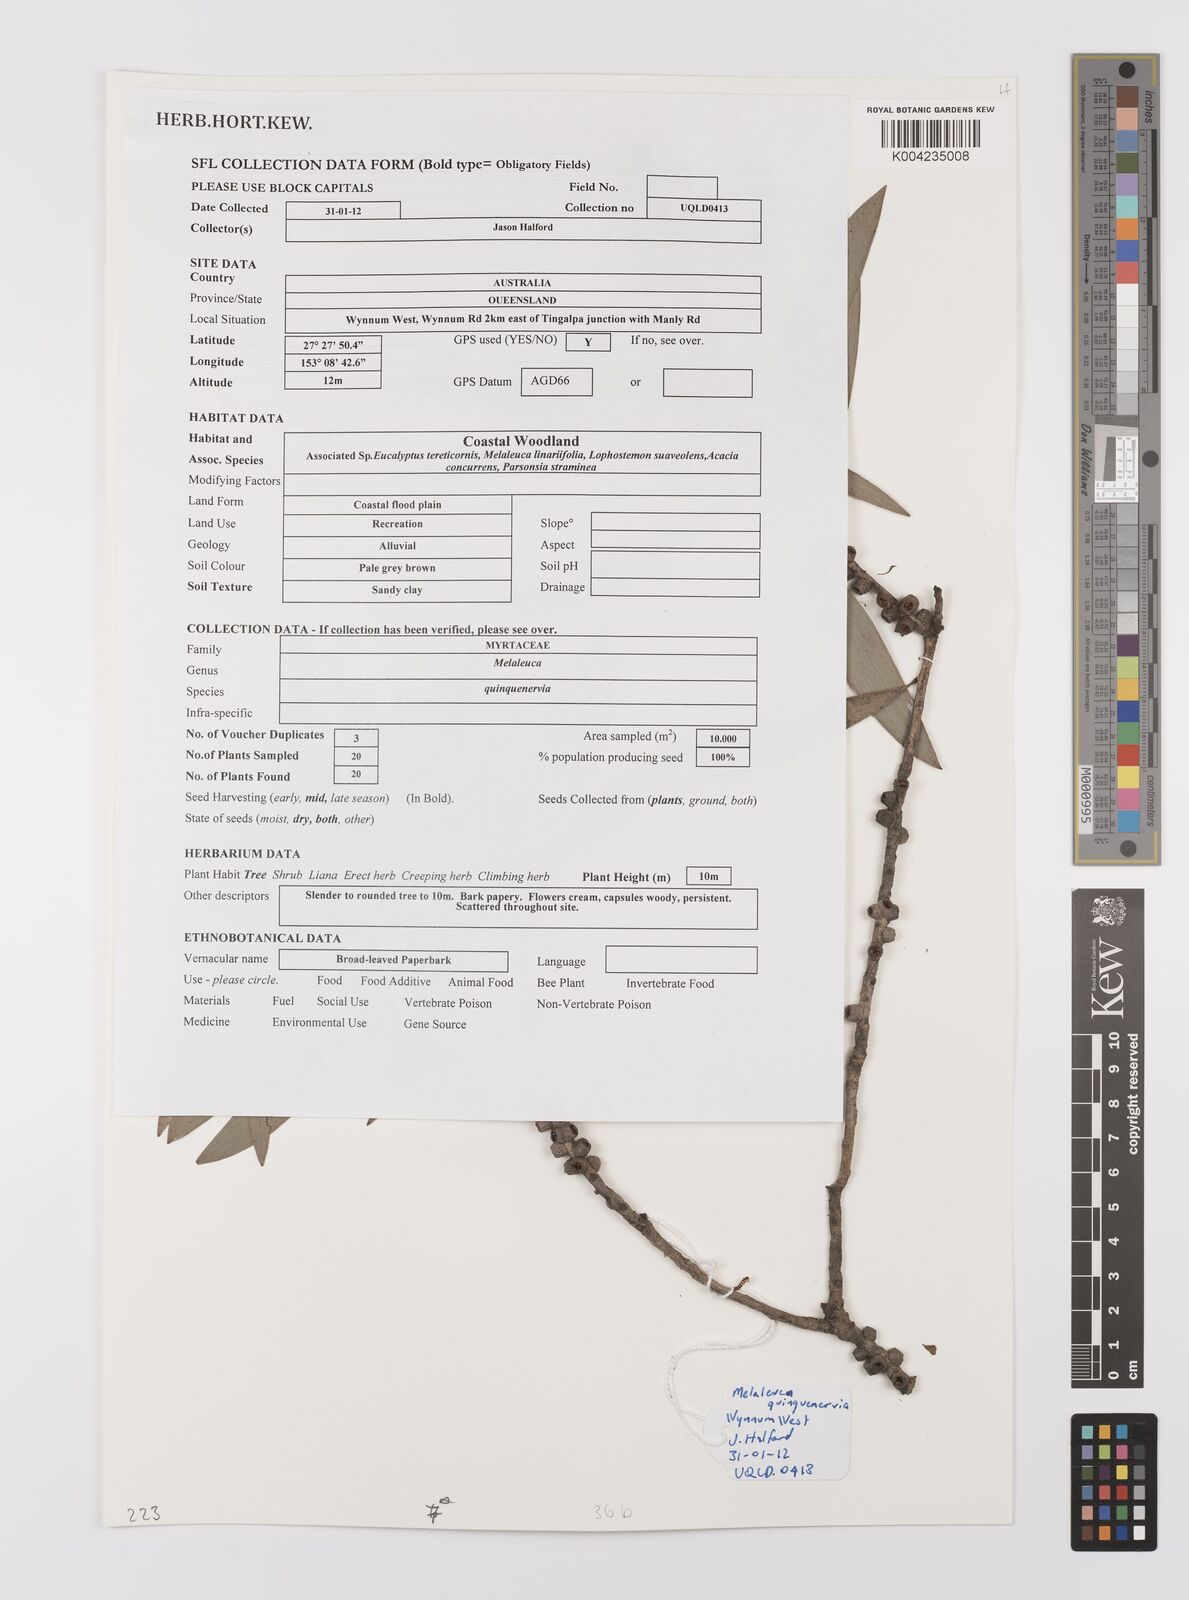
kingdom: Plantae
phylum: Tracheophyta
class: Magnoliopsida
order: Myrtales
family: Myrtaceae
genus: Melaleuca
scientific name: Melaleuca quinquenervia
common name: Punktree
